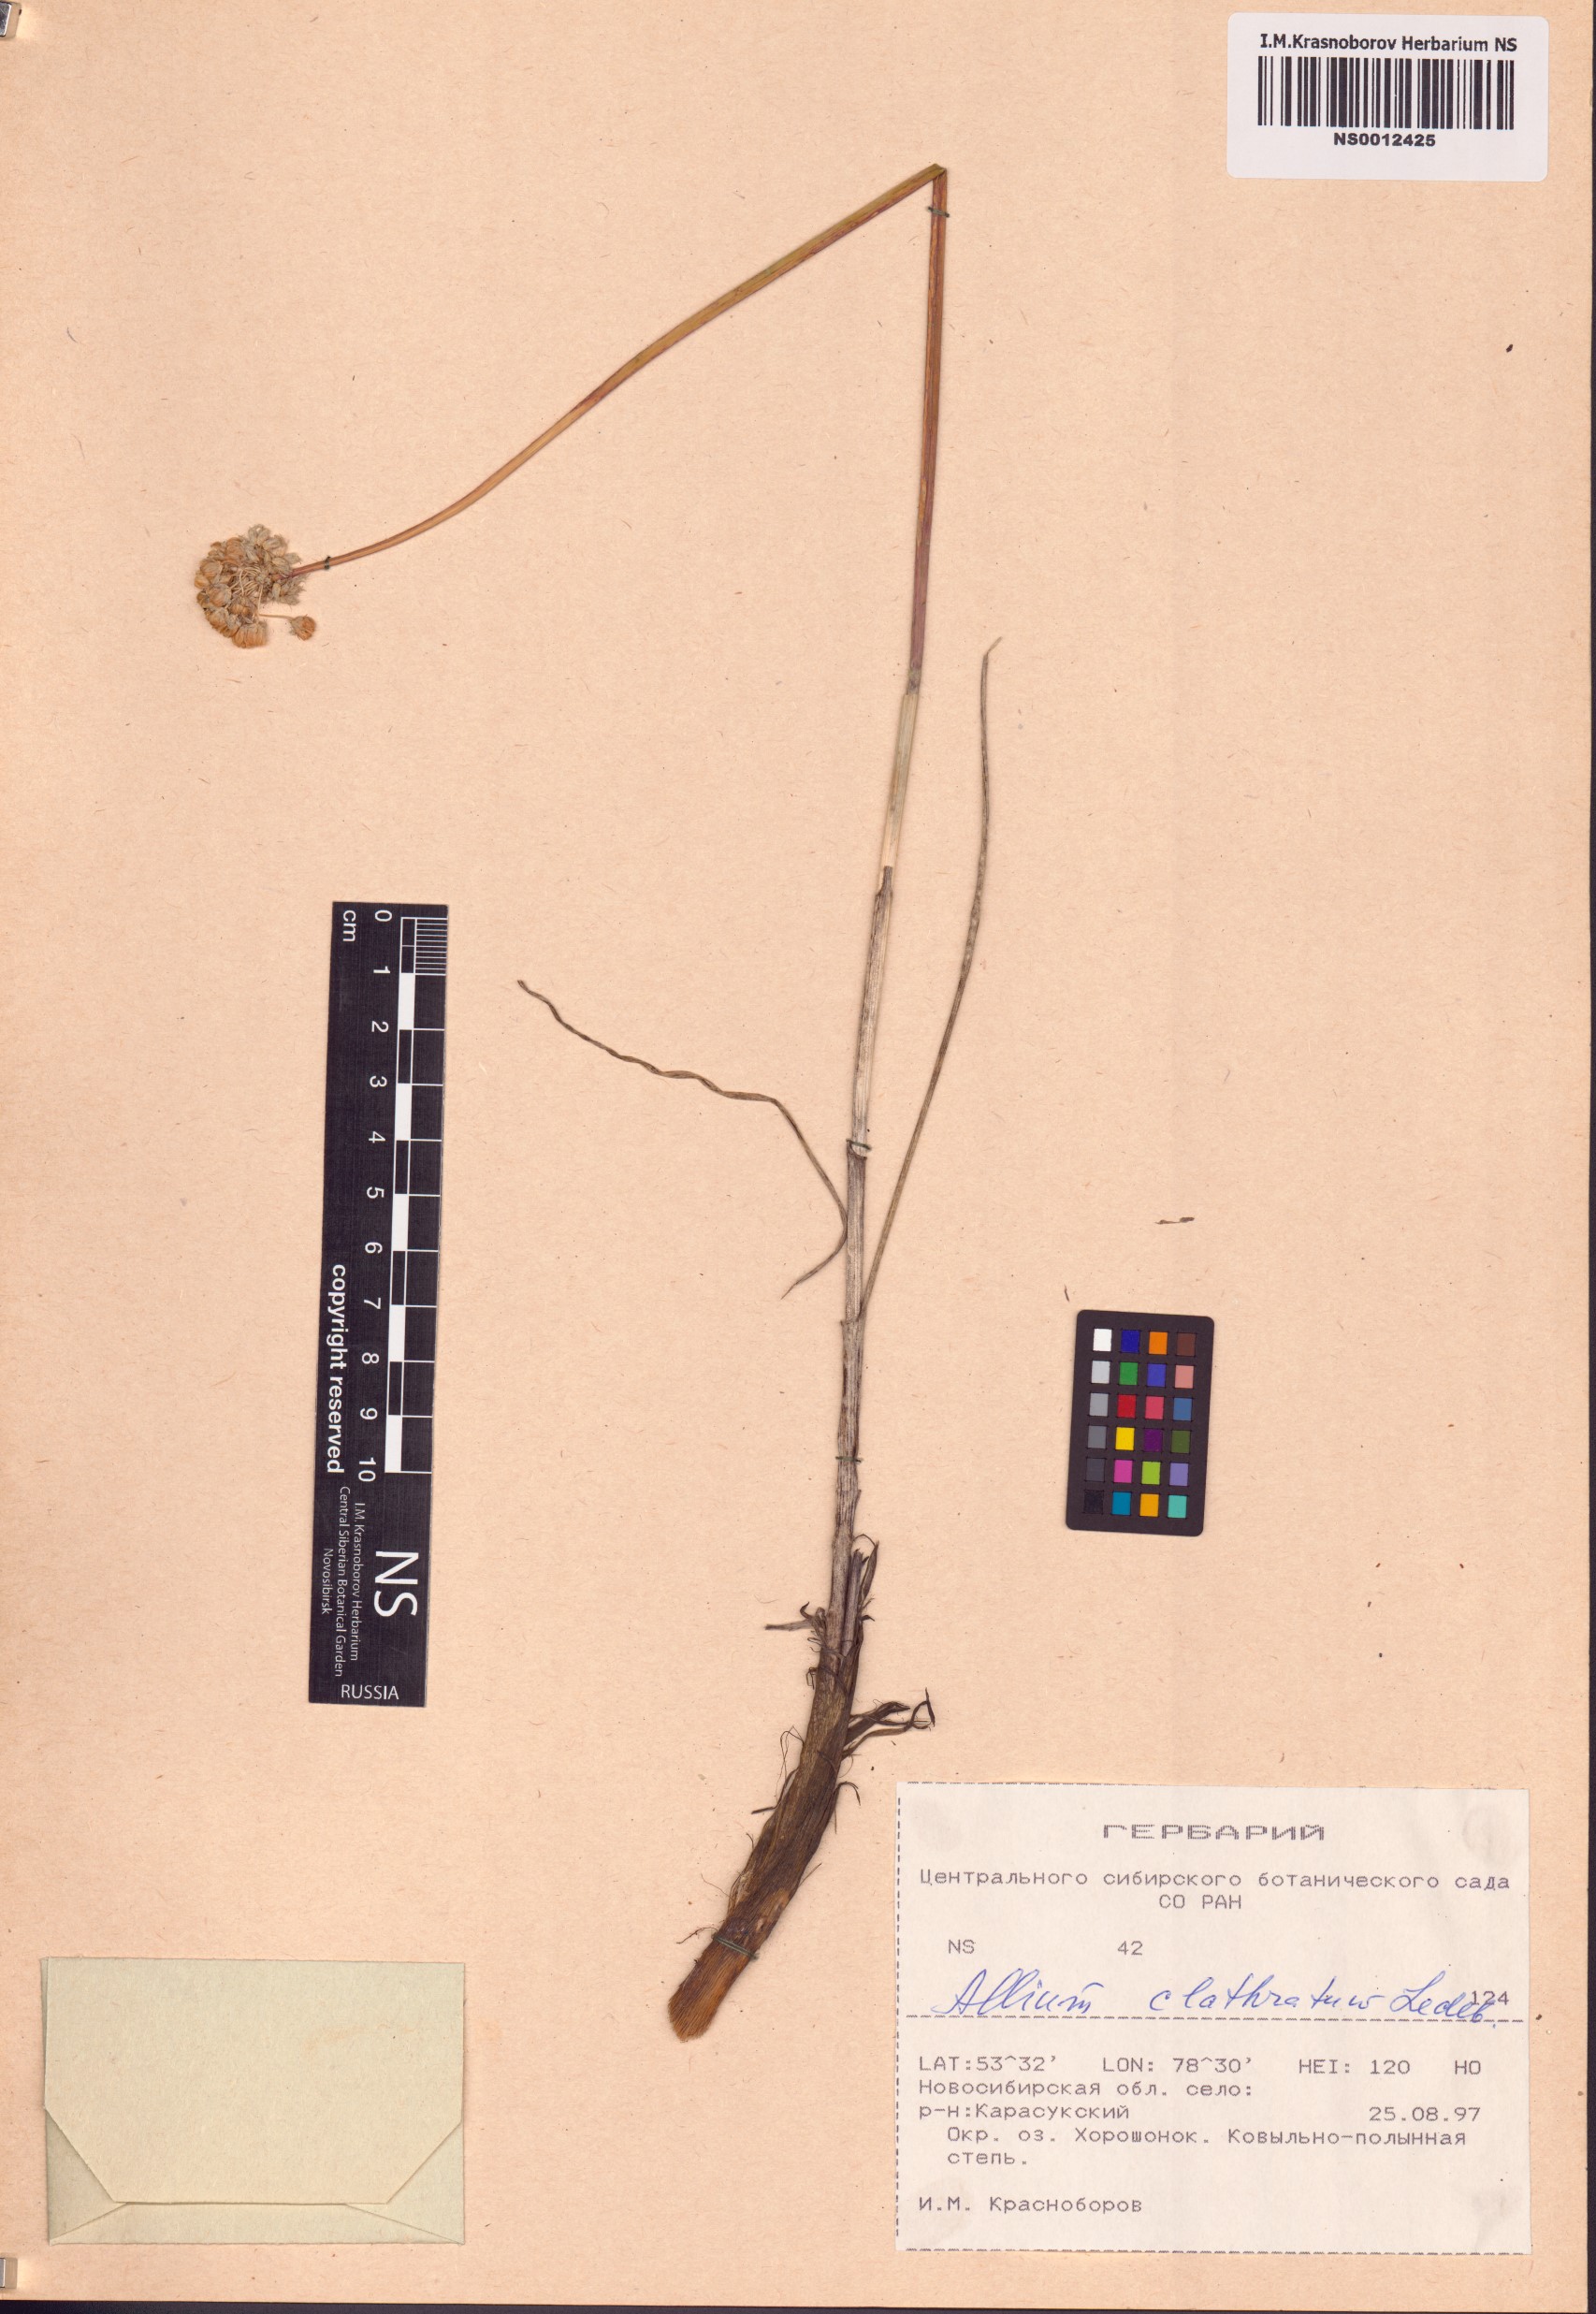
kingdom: Plantae
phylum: Tracheophyta
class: Liliopsida
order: Asparagales
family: Amaryllidaceae
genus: Allium
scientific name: Allium clathratum
